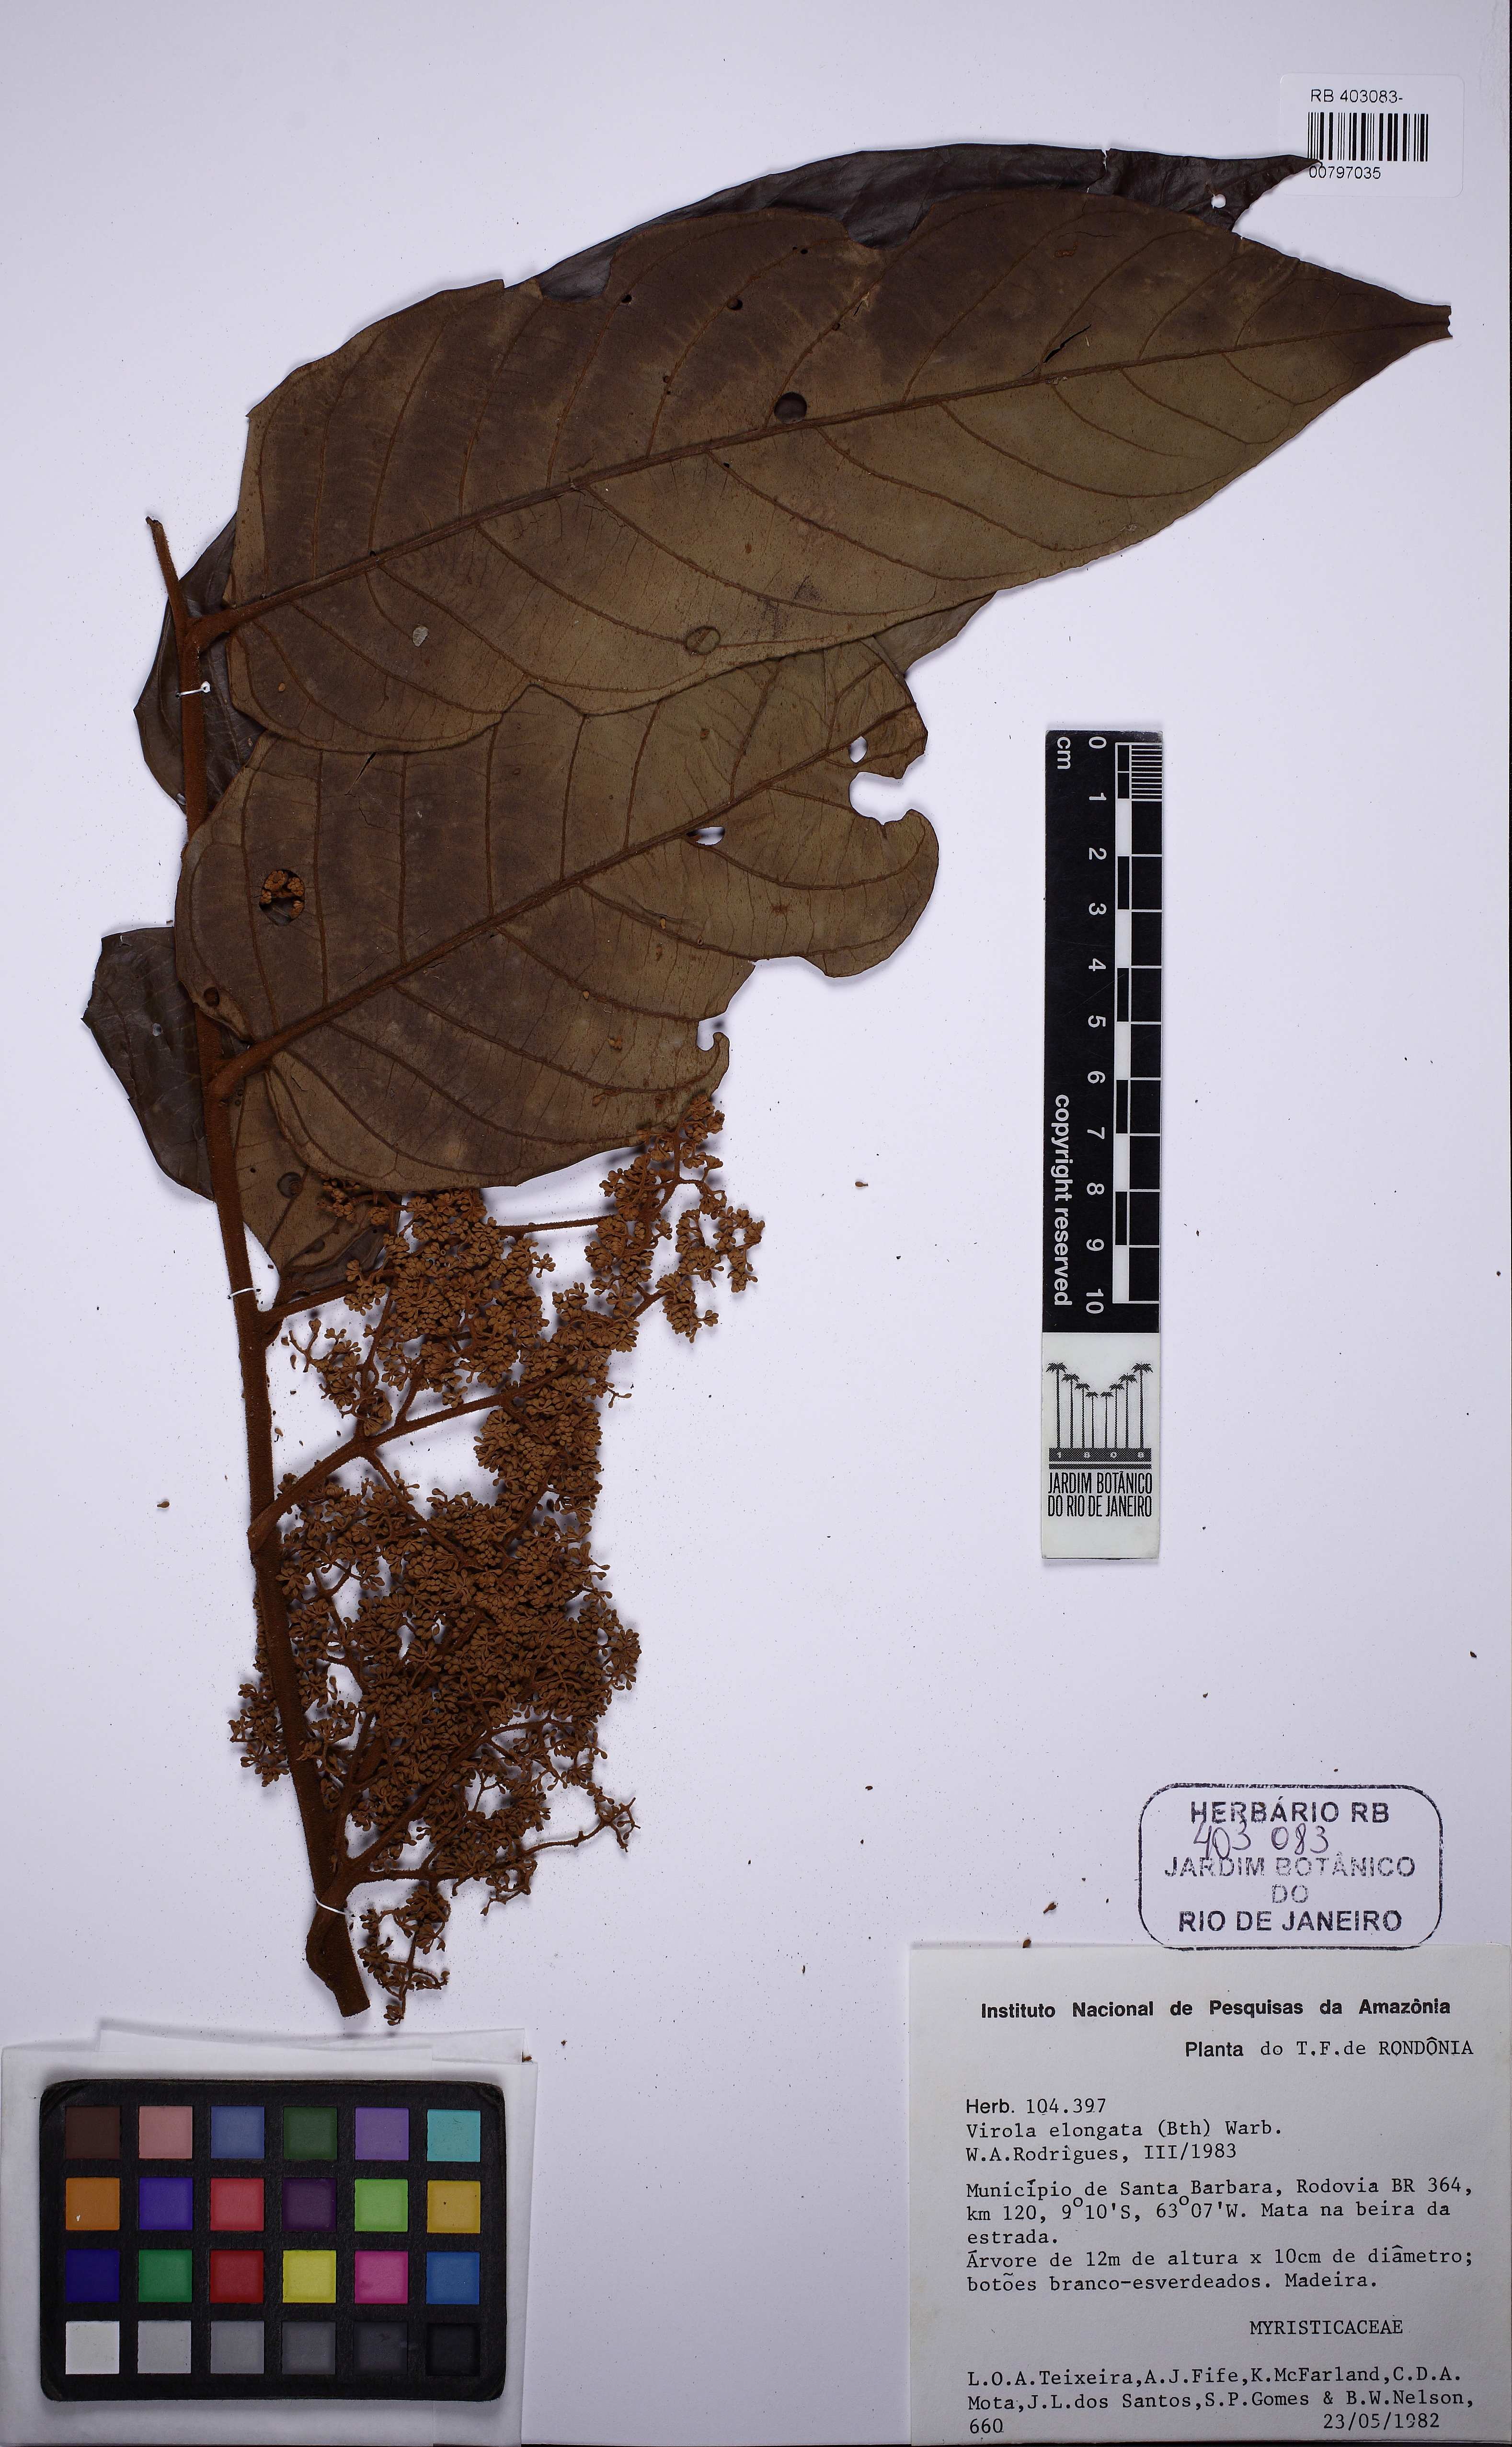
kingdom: Plantae
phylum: Tracheophyta
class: Magnoliopsida
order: Magnoliales
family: Myristicaceae
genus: Virola
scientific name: Virola elongata
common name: Sacred virola
